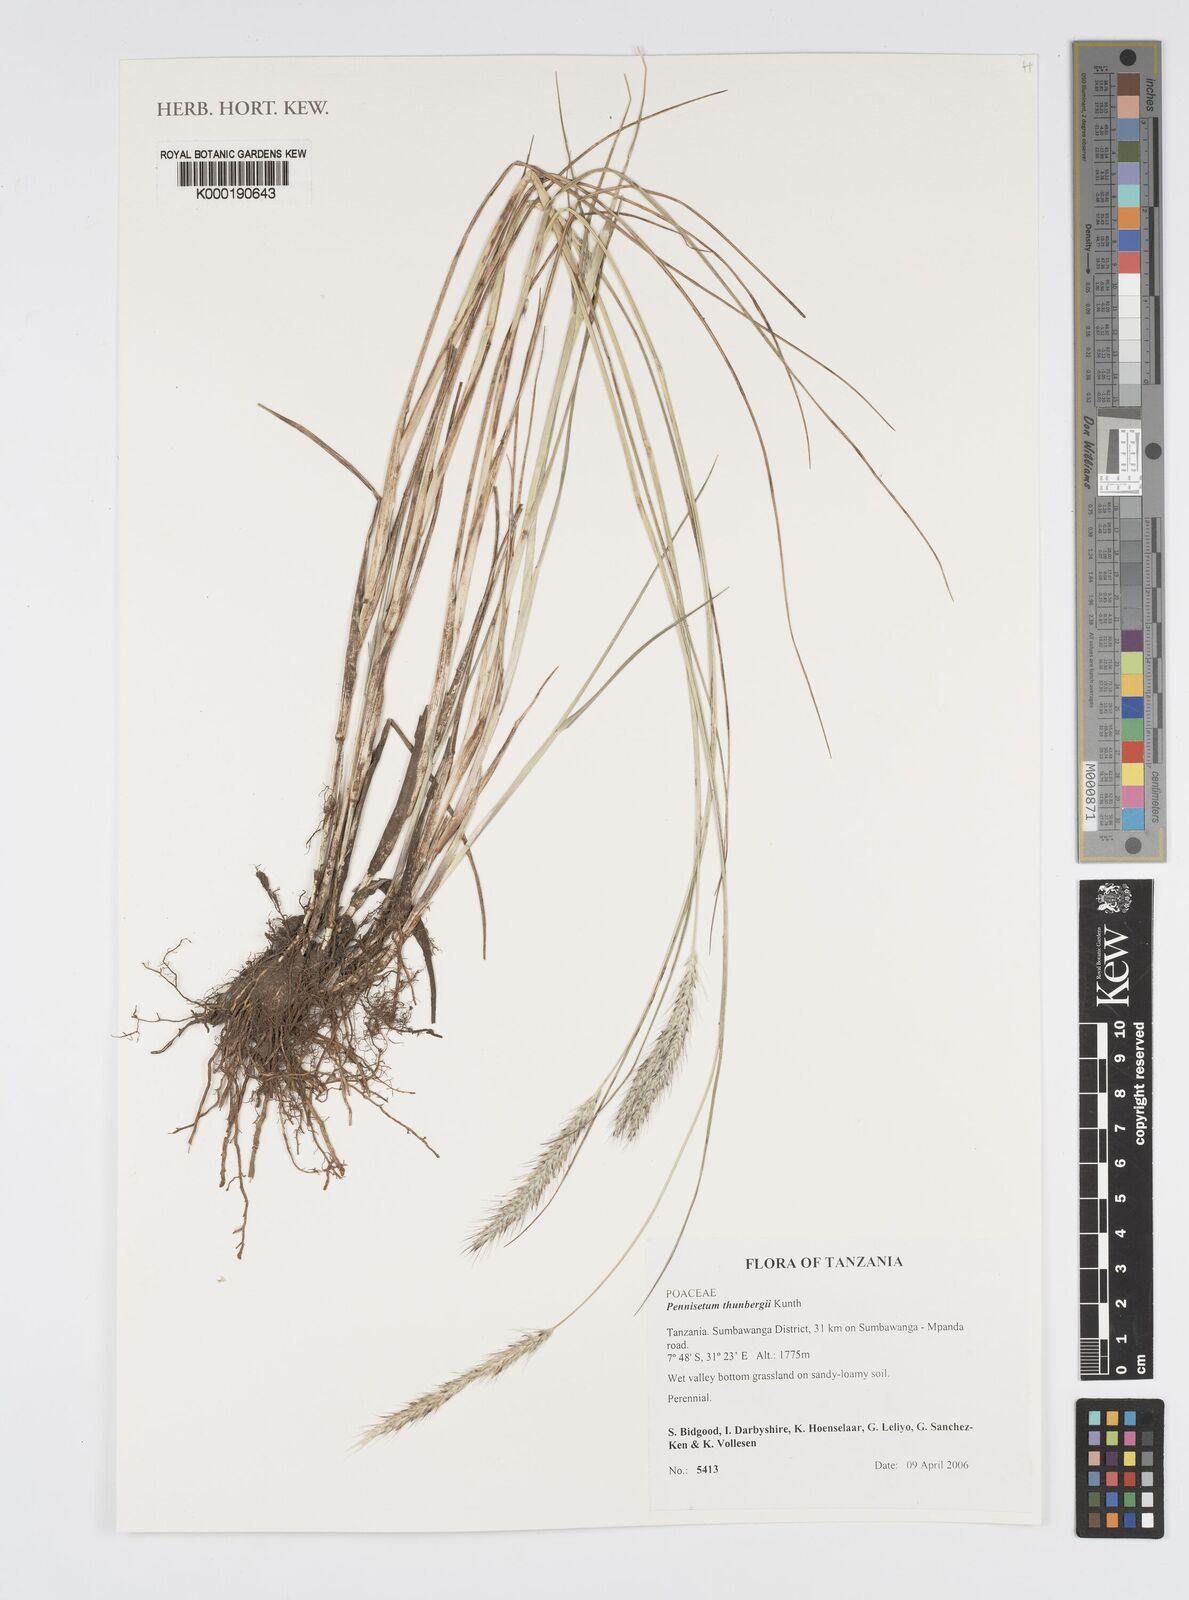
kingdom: Plantae
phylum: Tracheophyta
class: Liliopsida
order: Poales
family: Poaceae
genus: Cenchrus
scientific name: Cenchrus geniculatus
